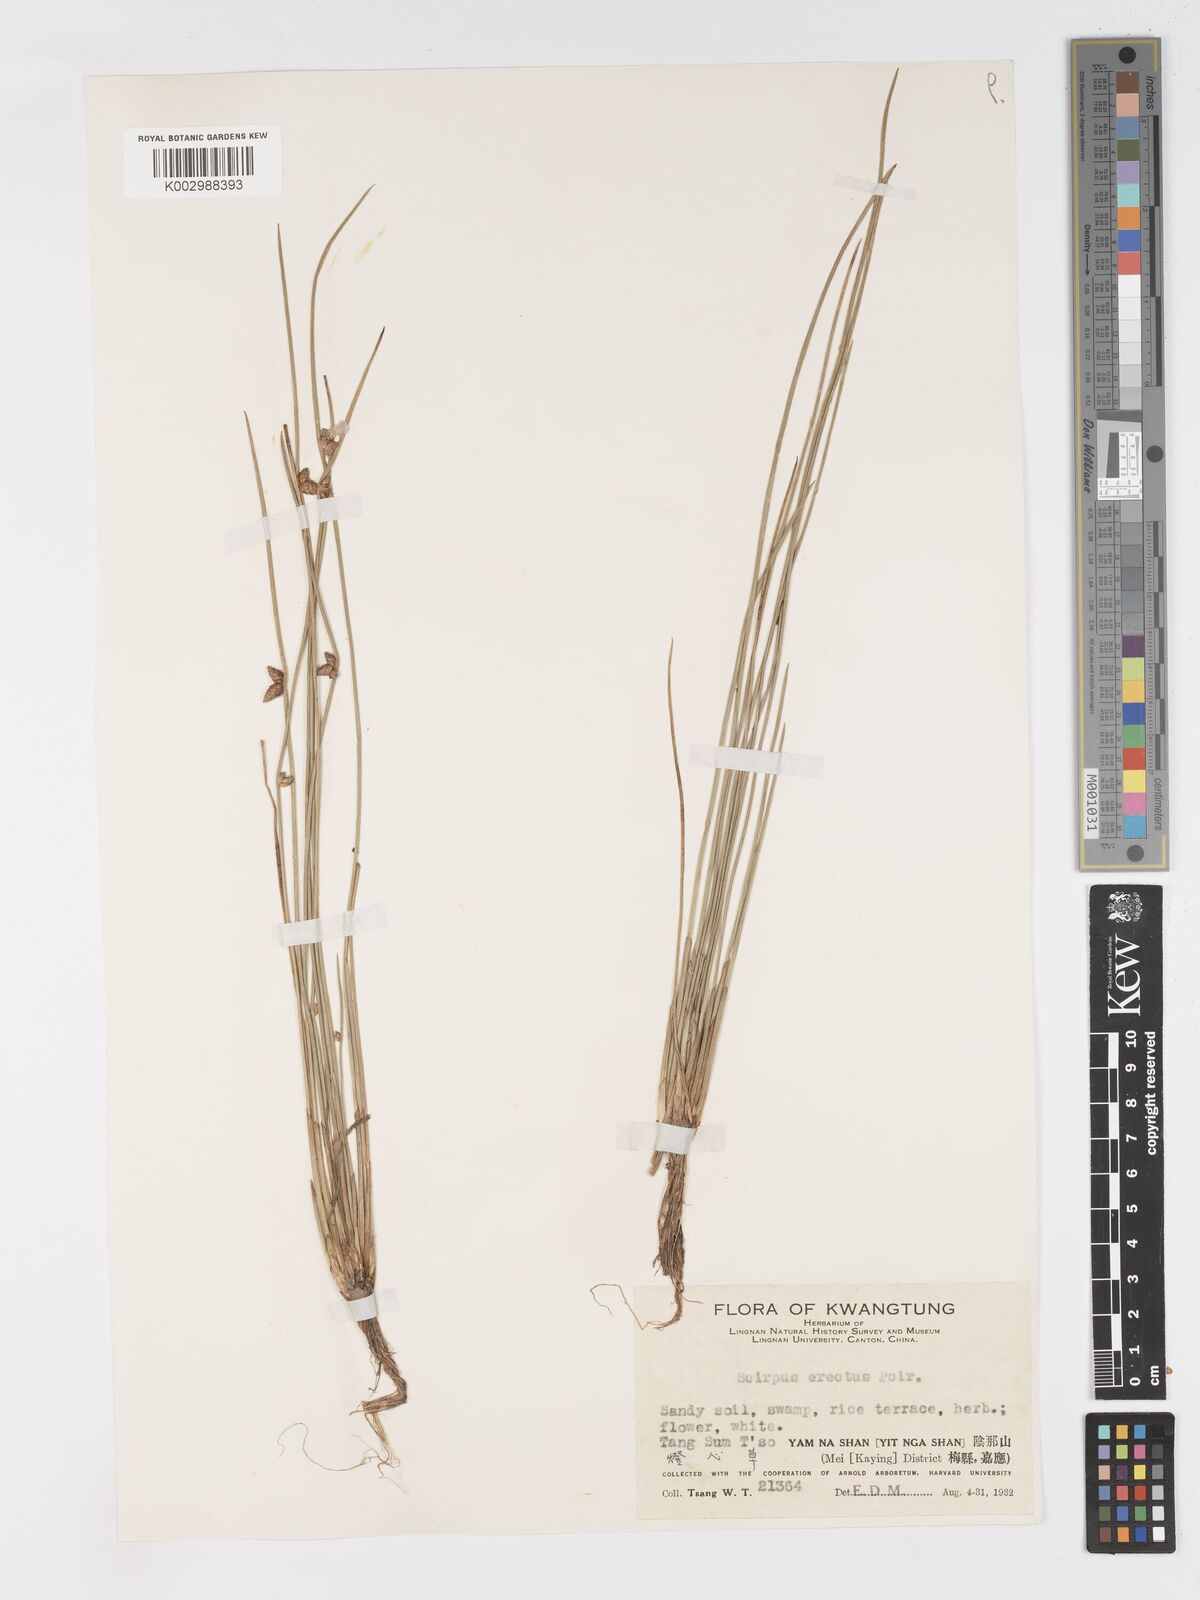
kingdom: Plantae
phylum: Tracheophyta
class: Liliopsida
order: Poales
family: Cyperaceae
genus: Schoenoplectiella
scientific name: Schoenoplectiella erecta
